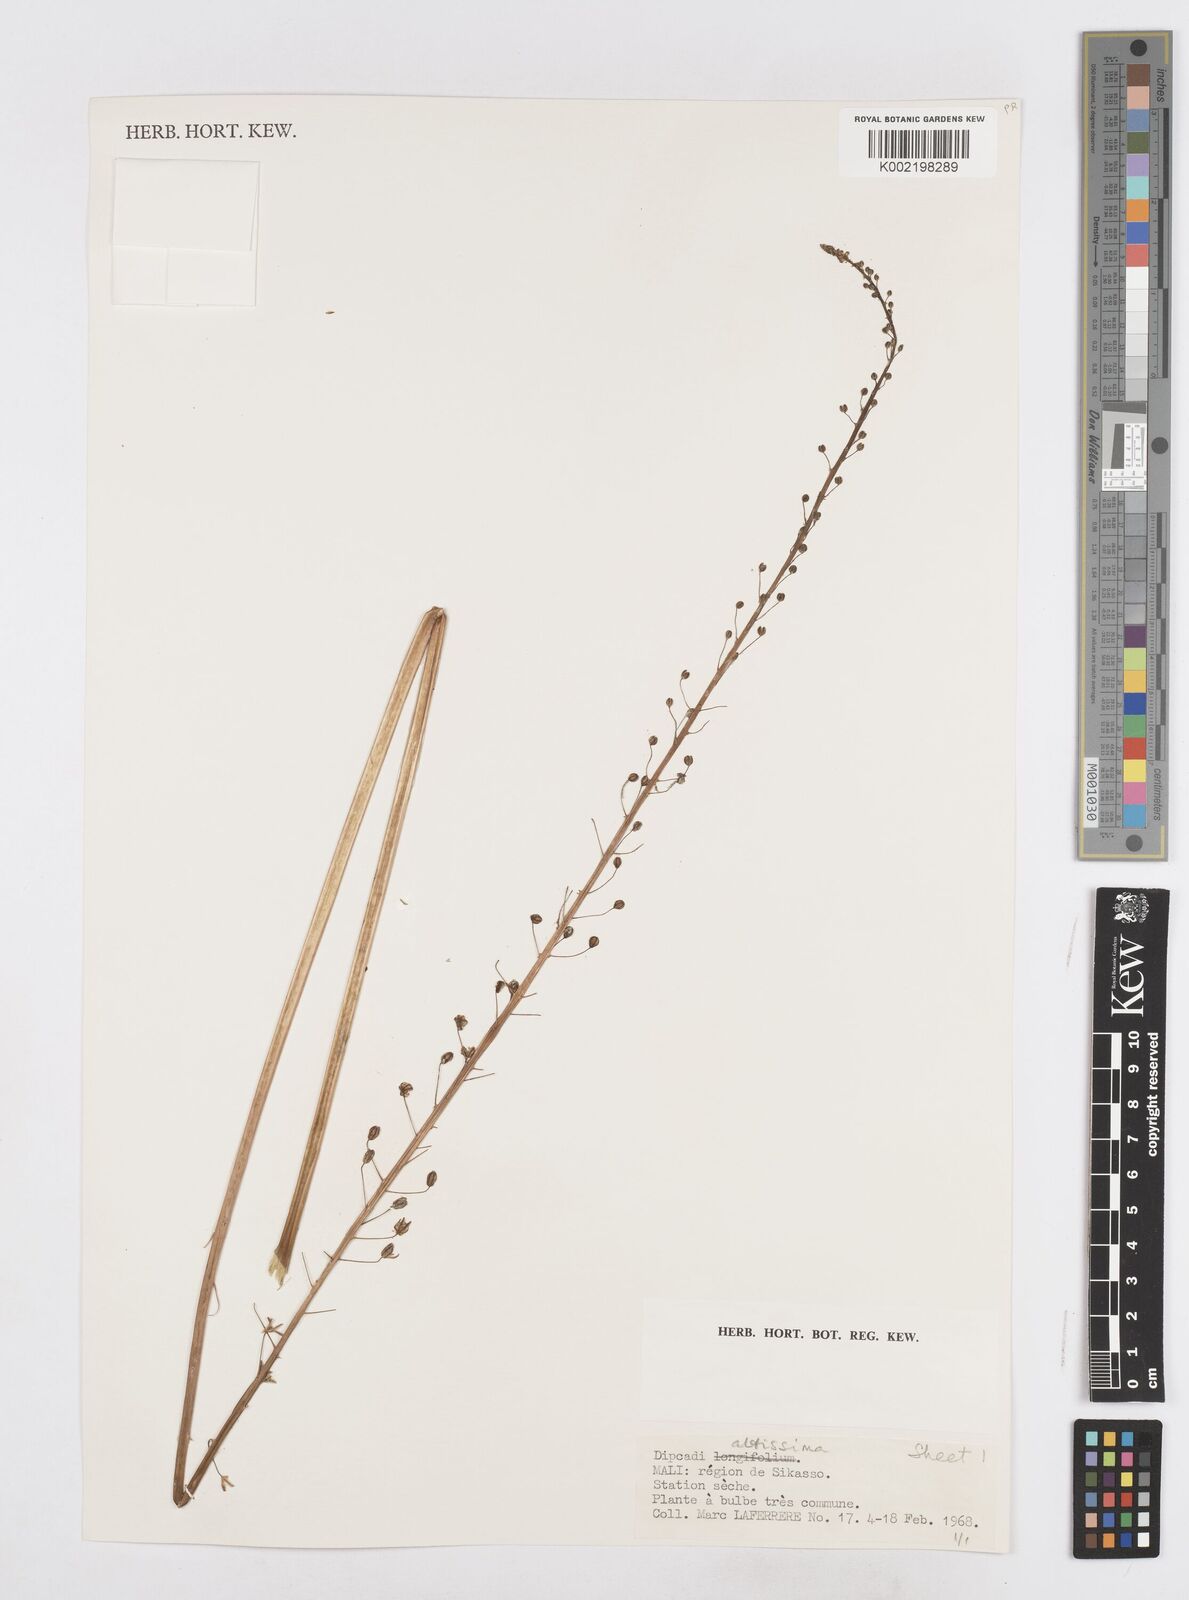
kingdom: Plantae
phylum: Tracheophyta
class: Liliopsida
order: Asparagales
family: Asparagaceae
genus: Drimia
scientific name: Drimia altissima
